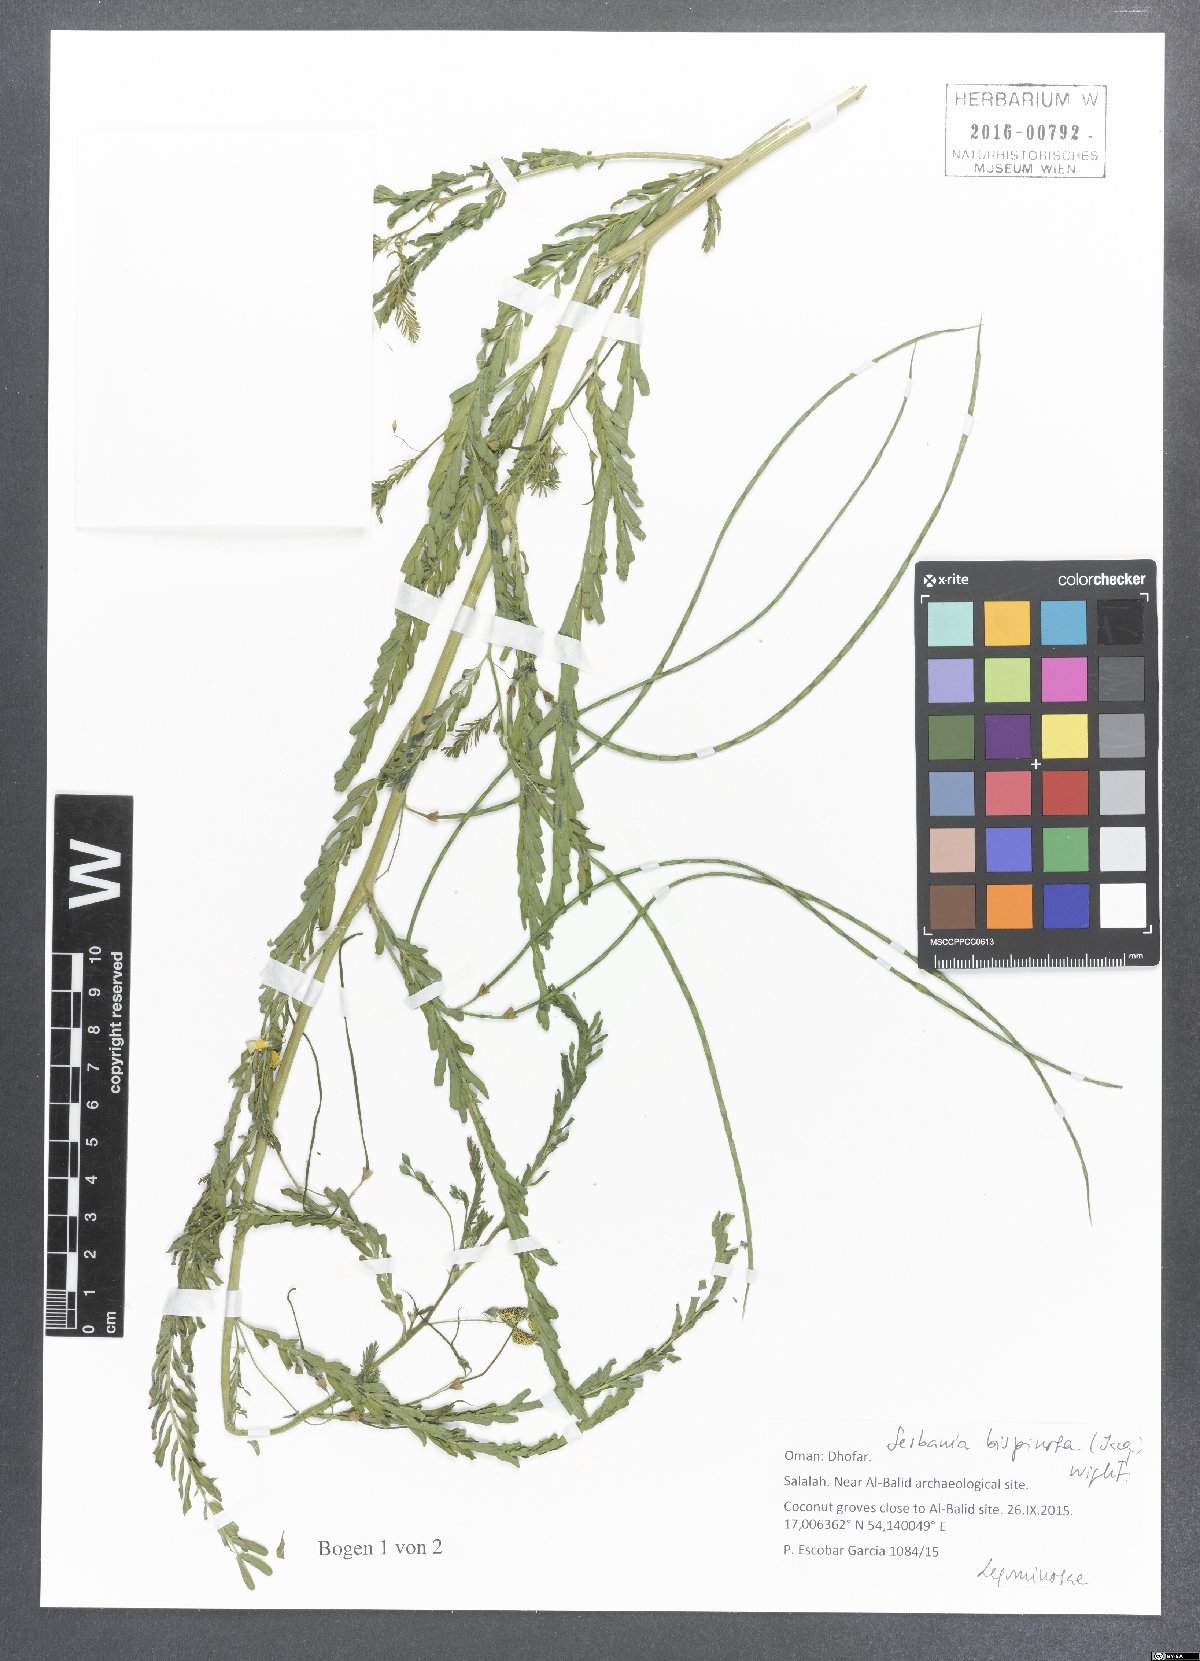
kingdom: Plantae
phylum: Tracheophyta
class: Magnoliopsida
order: Fabales
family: Fabaceae
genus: Sesbania
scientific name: Sesbania bispinosa
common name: Sesbania pea
